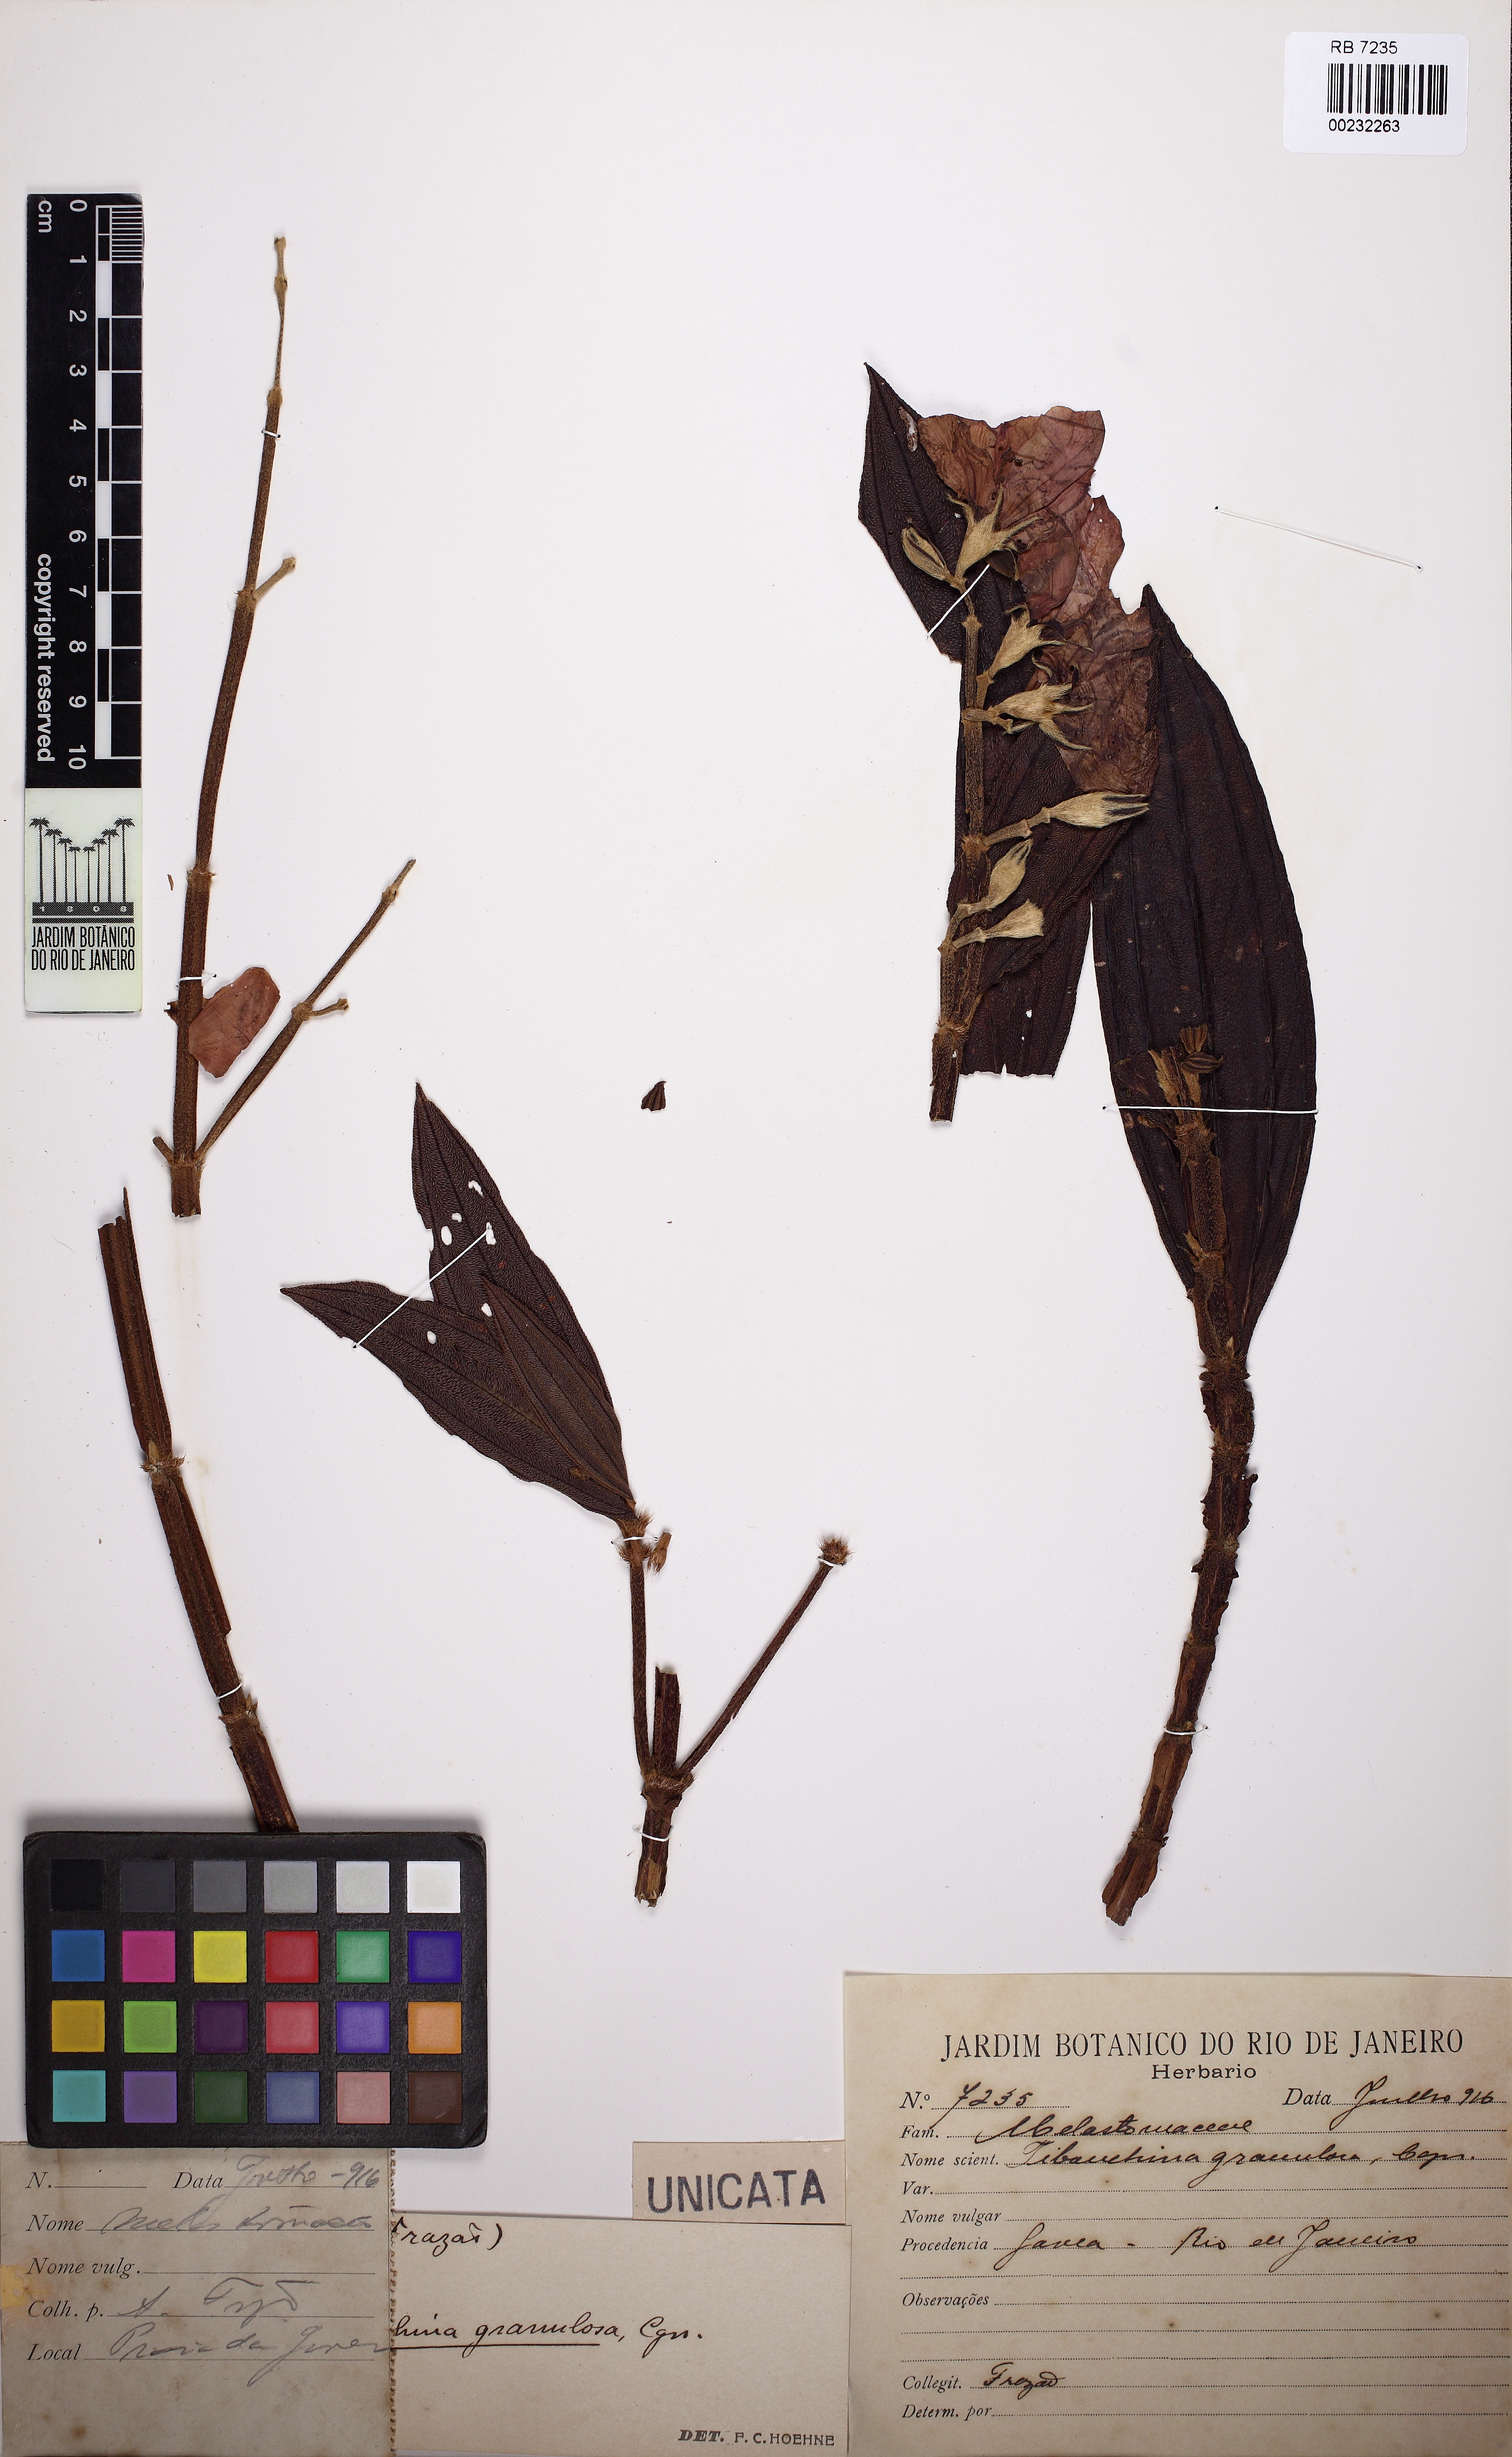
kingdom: Plantae
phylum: Tracheophyta
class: Magnoliopsida
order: Myrtales
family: Melastomataceae
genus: Pleroma
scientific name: Pleroma granulosum
